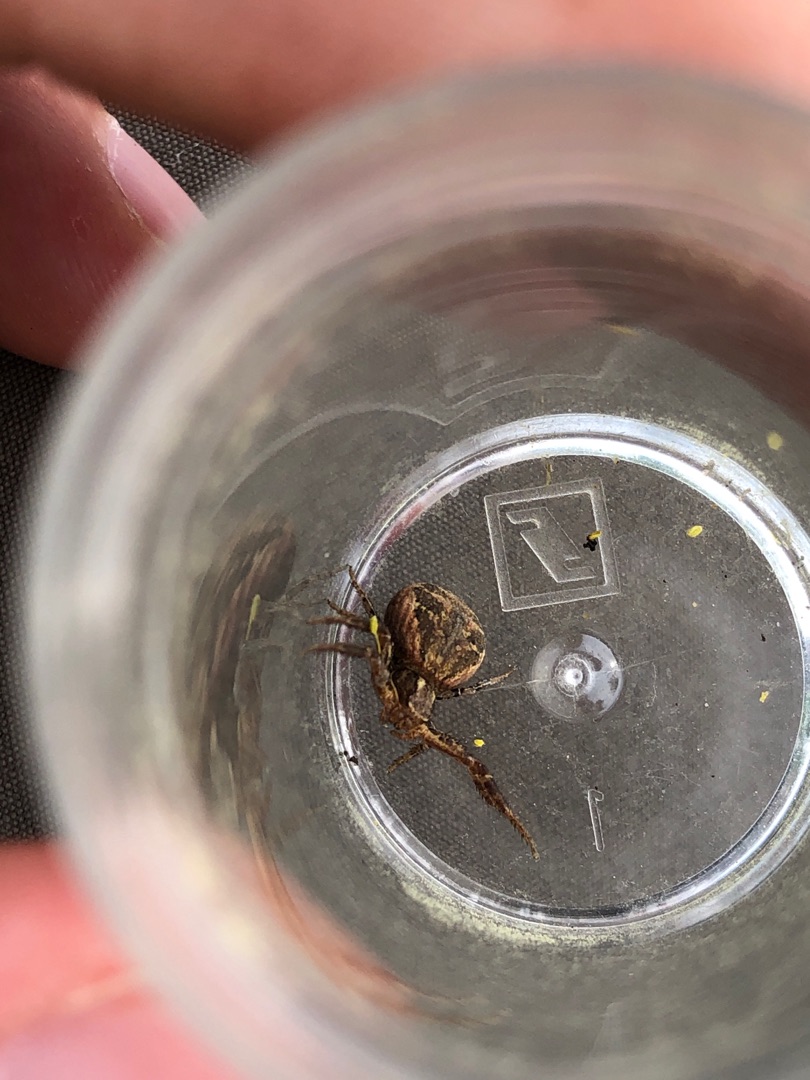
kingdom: Animalia
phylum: Arthropoda
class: Arachnida
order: Araneae
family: Thomisidae
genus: Xysticus
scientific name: Xysticus kochi
